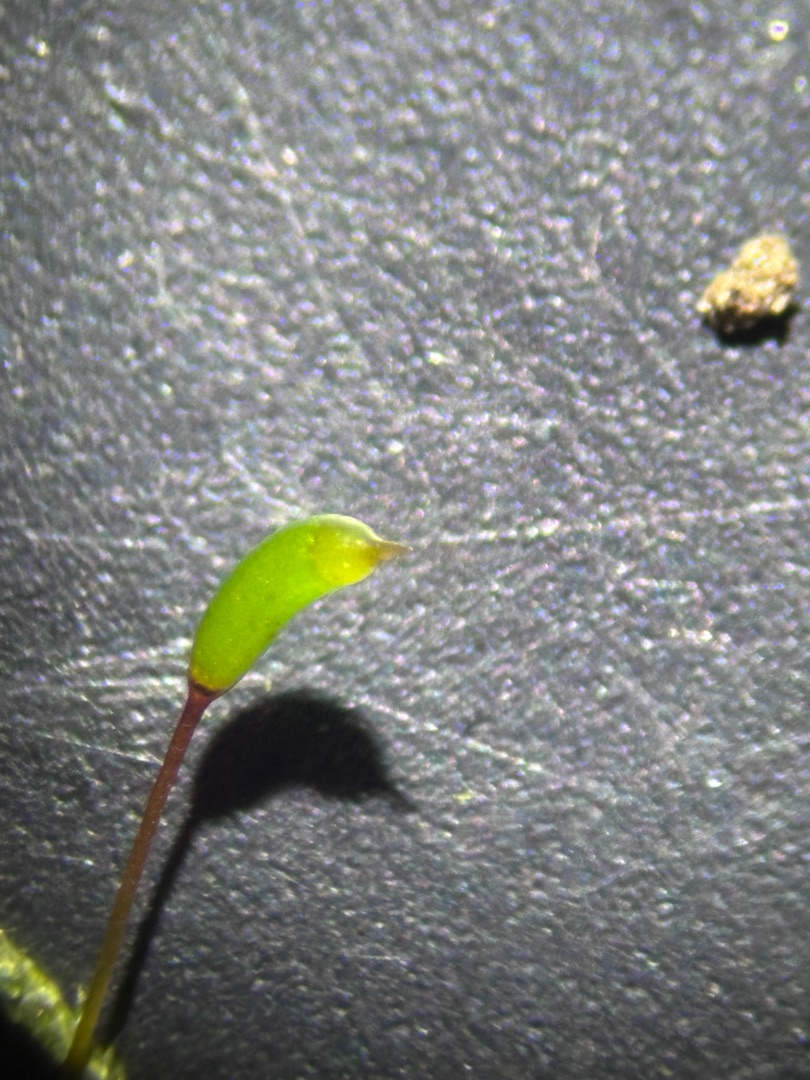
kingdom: Plantae
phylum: Bryophyta
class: Bryopsida
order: Hypnales
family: Hypnaceae
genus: Hypnum
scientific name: Hypnum cupressiforme
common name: Almindelig cypresmos
